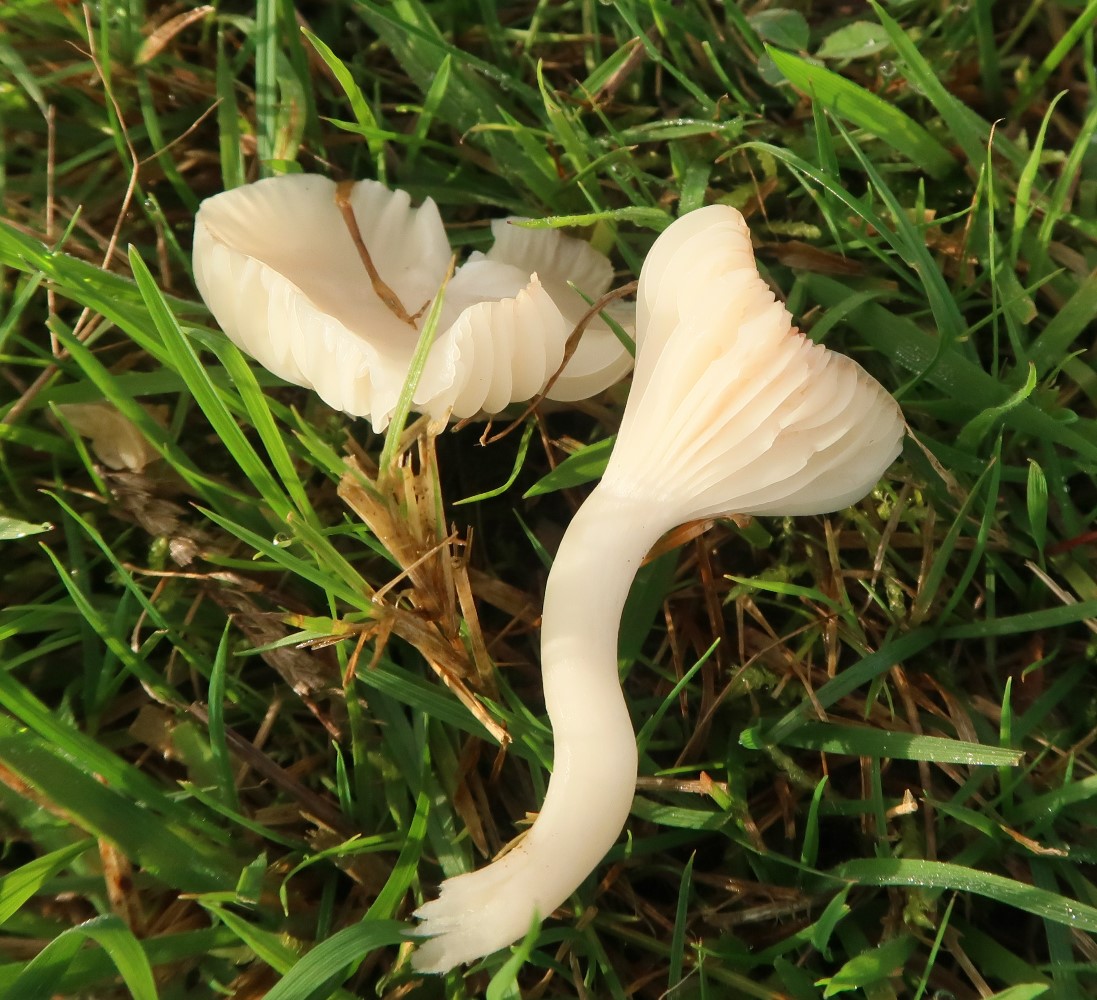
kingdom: Fungi
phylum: Basidiomycota
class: Agaricomycetes
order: Agaricales
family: Hygrophoraceae
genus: Cuphophyllus
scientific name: Cuphophyllus virgineus
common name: snehvid vokshat
